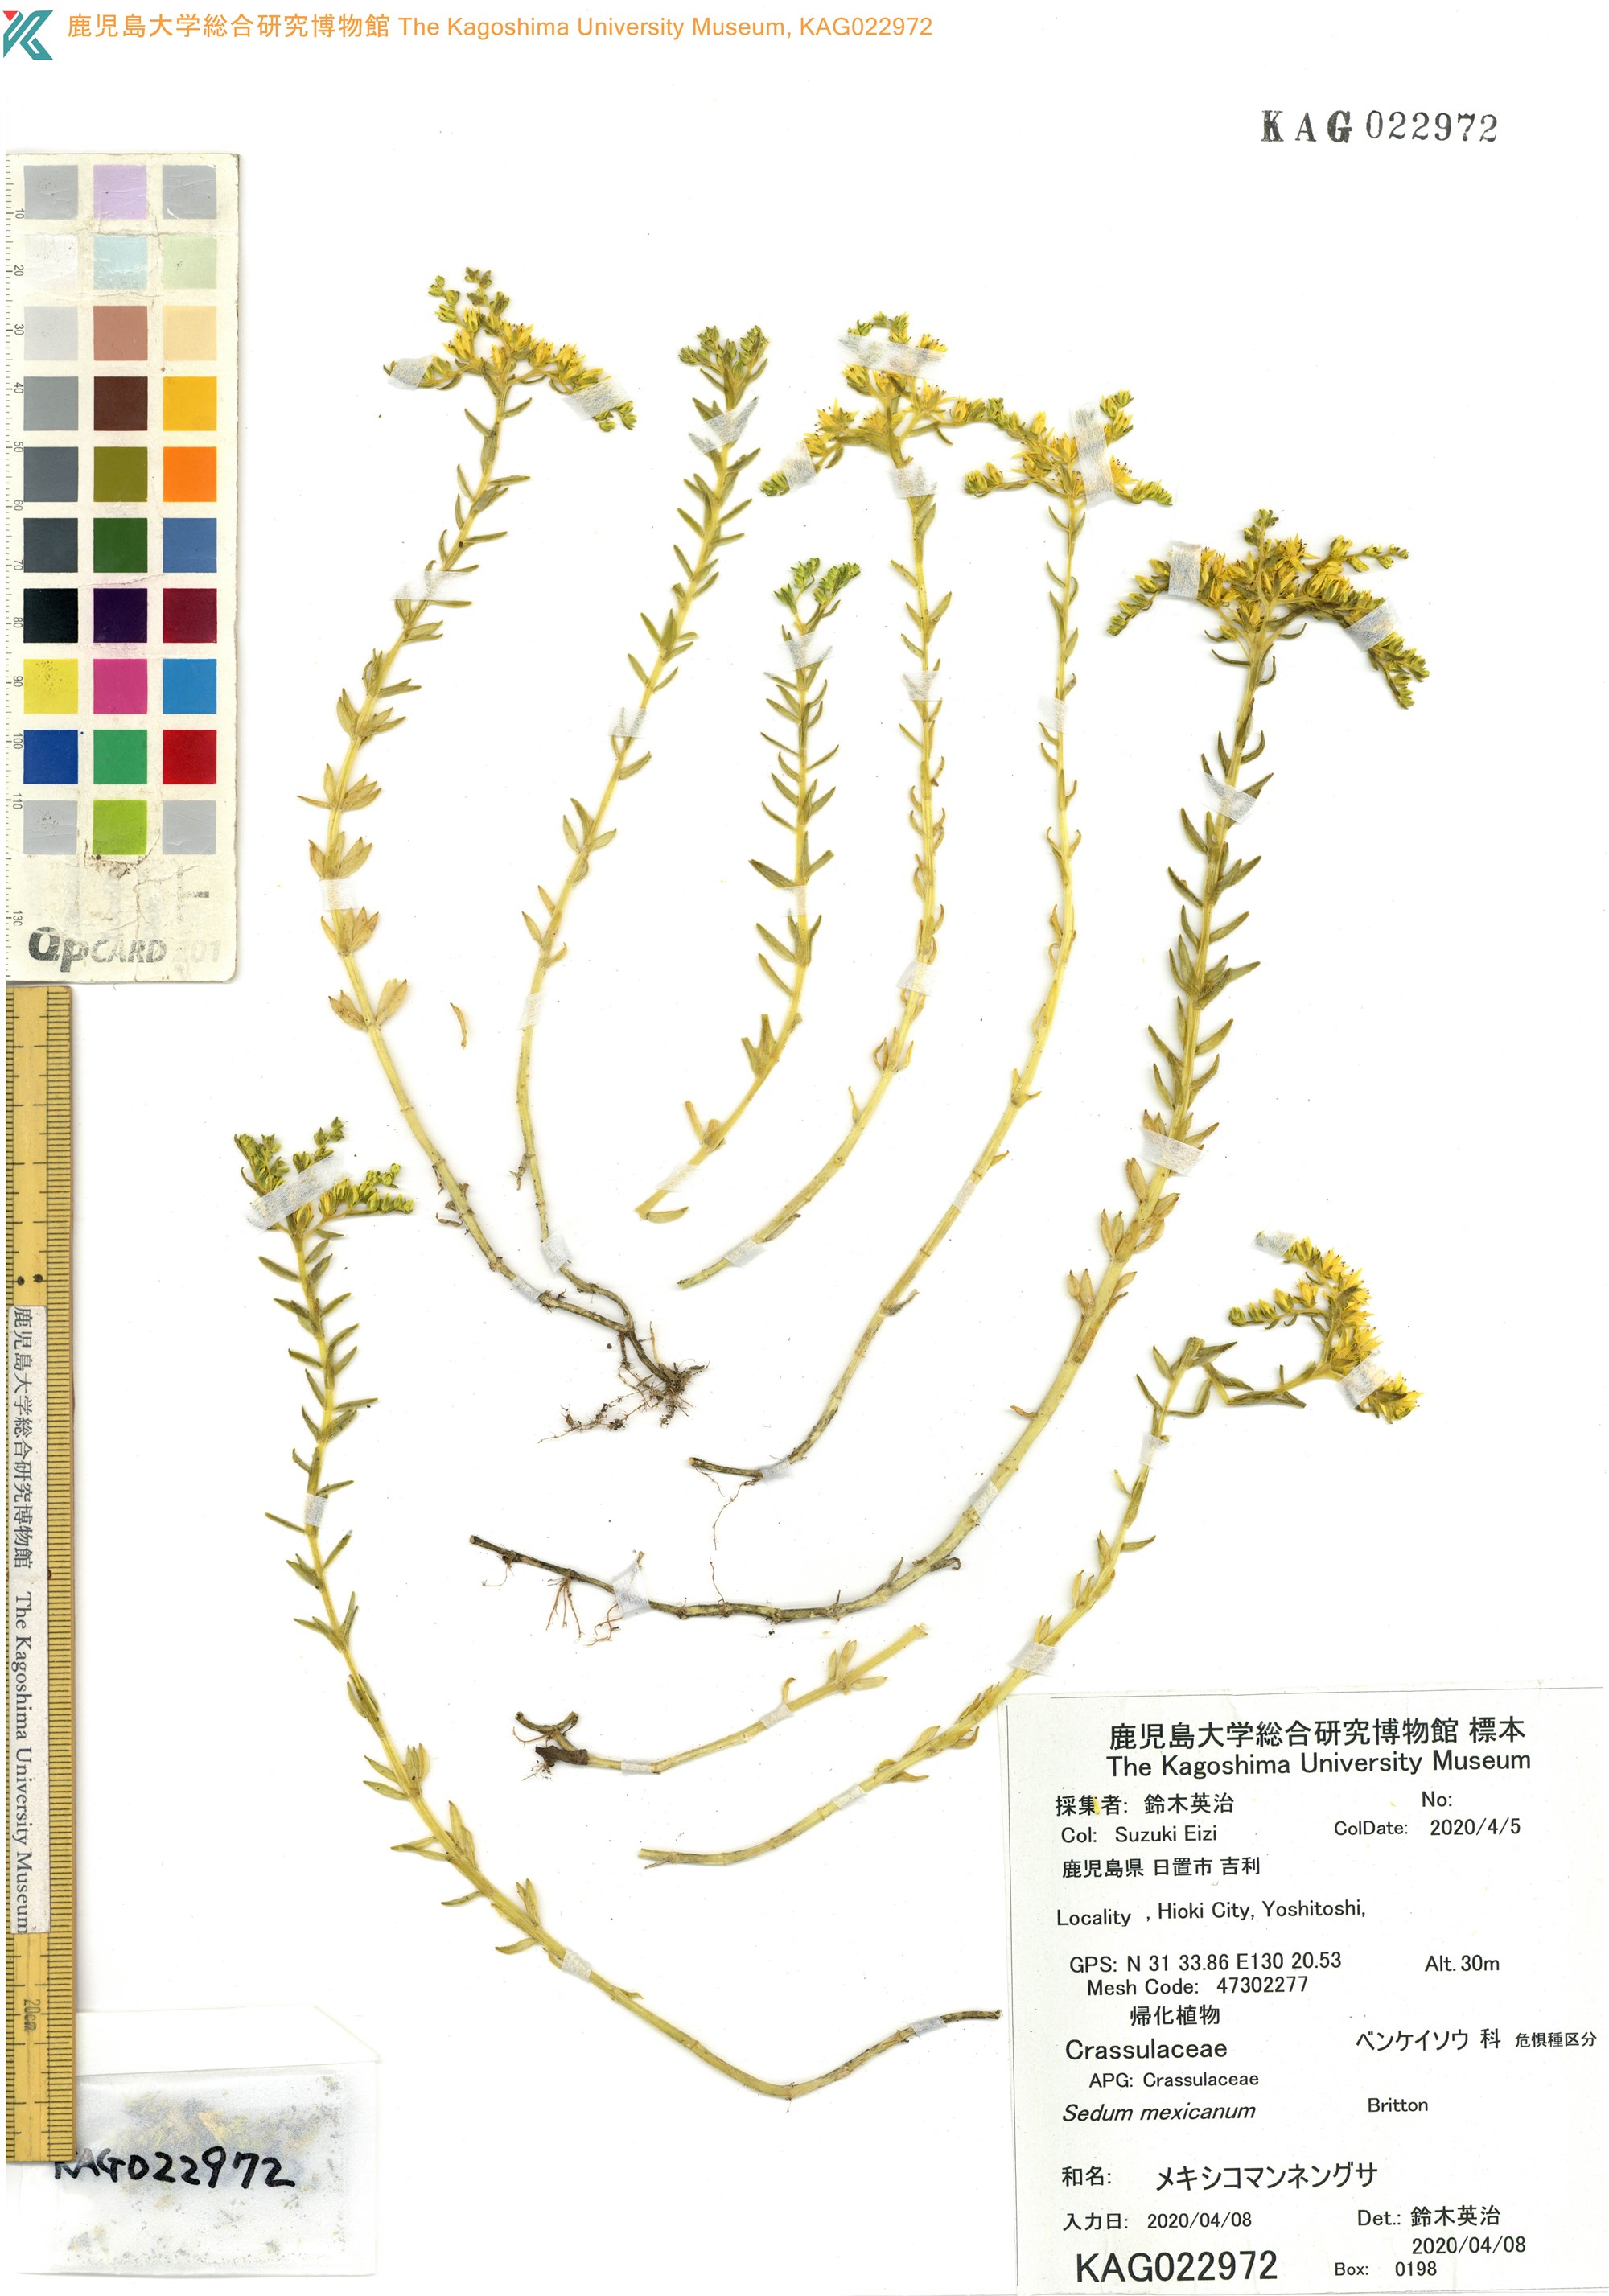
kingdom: Plantae
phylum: Tracheophyta
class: Magnoliopsida
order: Saxifragales
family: Crassulaceae
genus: Sedum
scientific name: Sedum mexicanum
